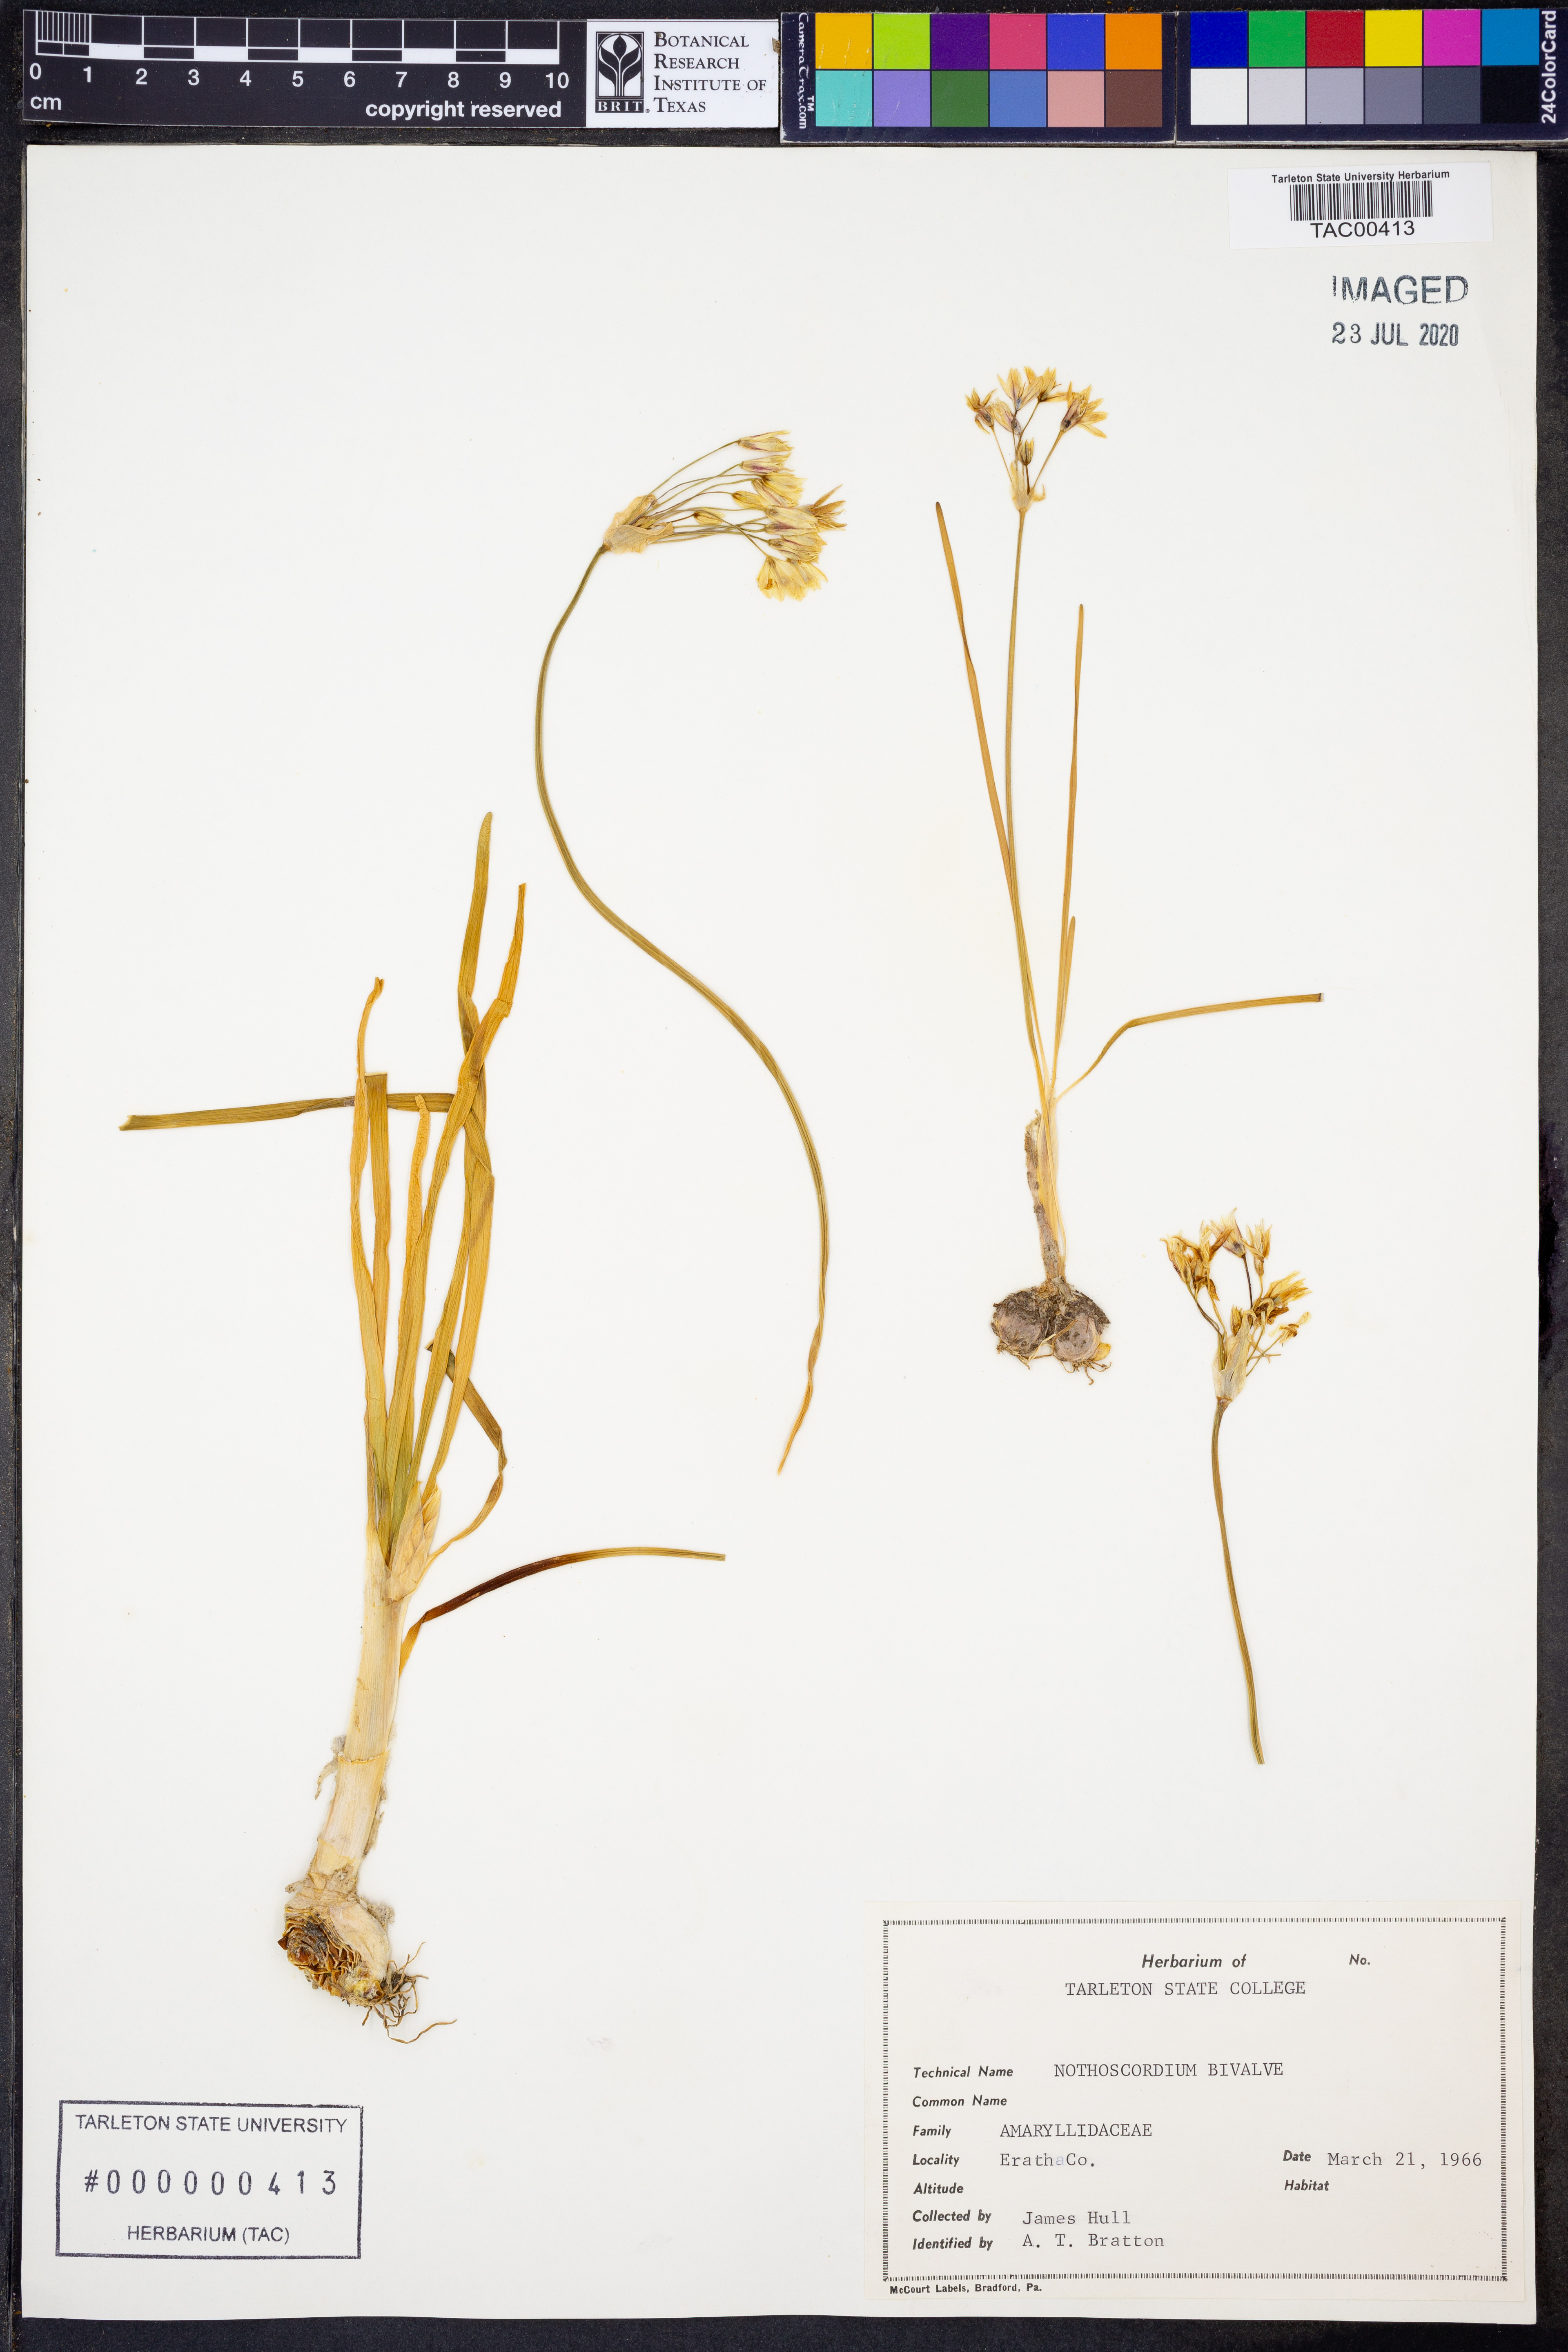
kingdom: Plantae
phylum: Tracheophyta
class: Liliopsida
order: Asparagales
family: Amaryllidaceae
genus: Nothoscordum
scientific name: Nothoscordum bivalve
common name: Crow-poison
